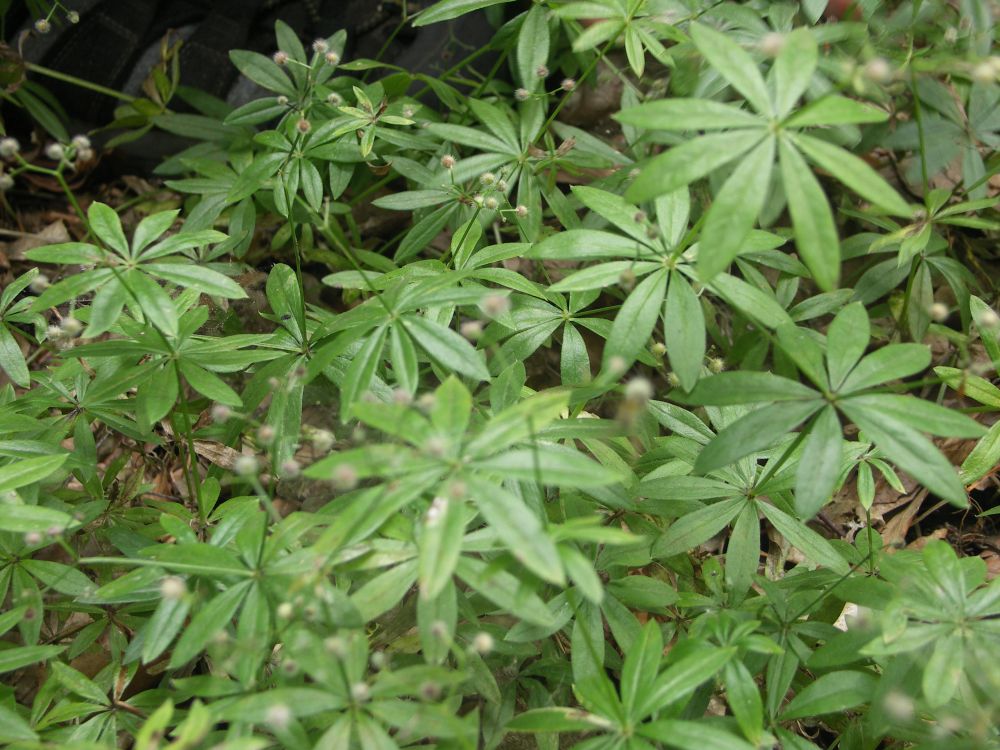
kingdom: Plantae
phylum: Tracheophyta
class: Magnoliopsida
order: Gentianales
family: Rubiaceae
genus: Galium
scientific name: Galium odoratum
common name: Sweet woodruff
